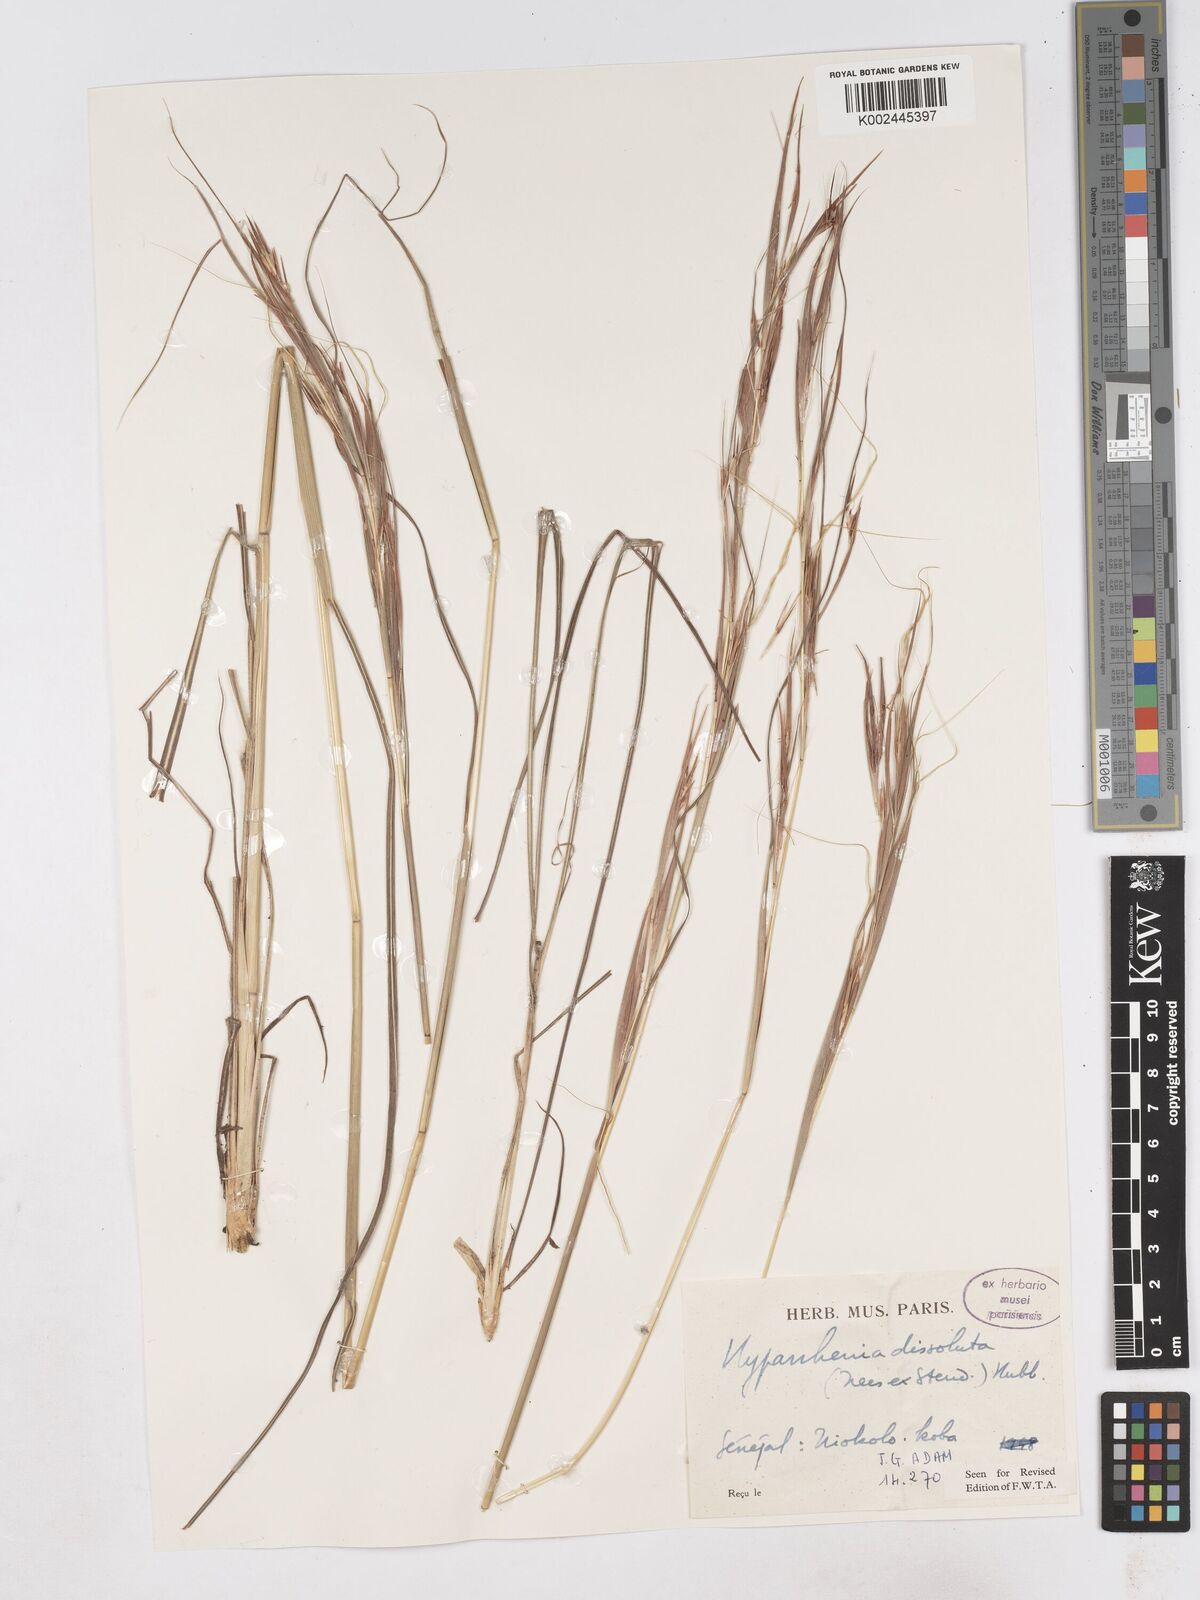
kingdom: Plantae
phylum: Tracheophyta
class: Liliopsida
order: Poales
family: Poaceae
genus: Hyperthelia
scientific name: Hyperthelia dissoluta
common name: Yellow thatching grass
